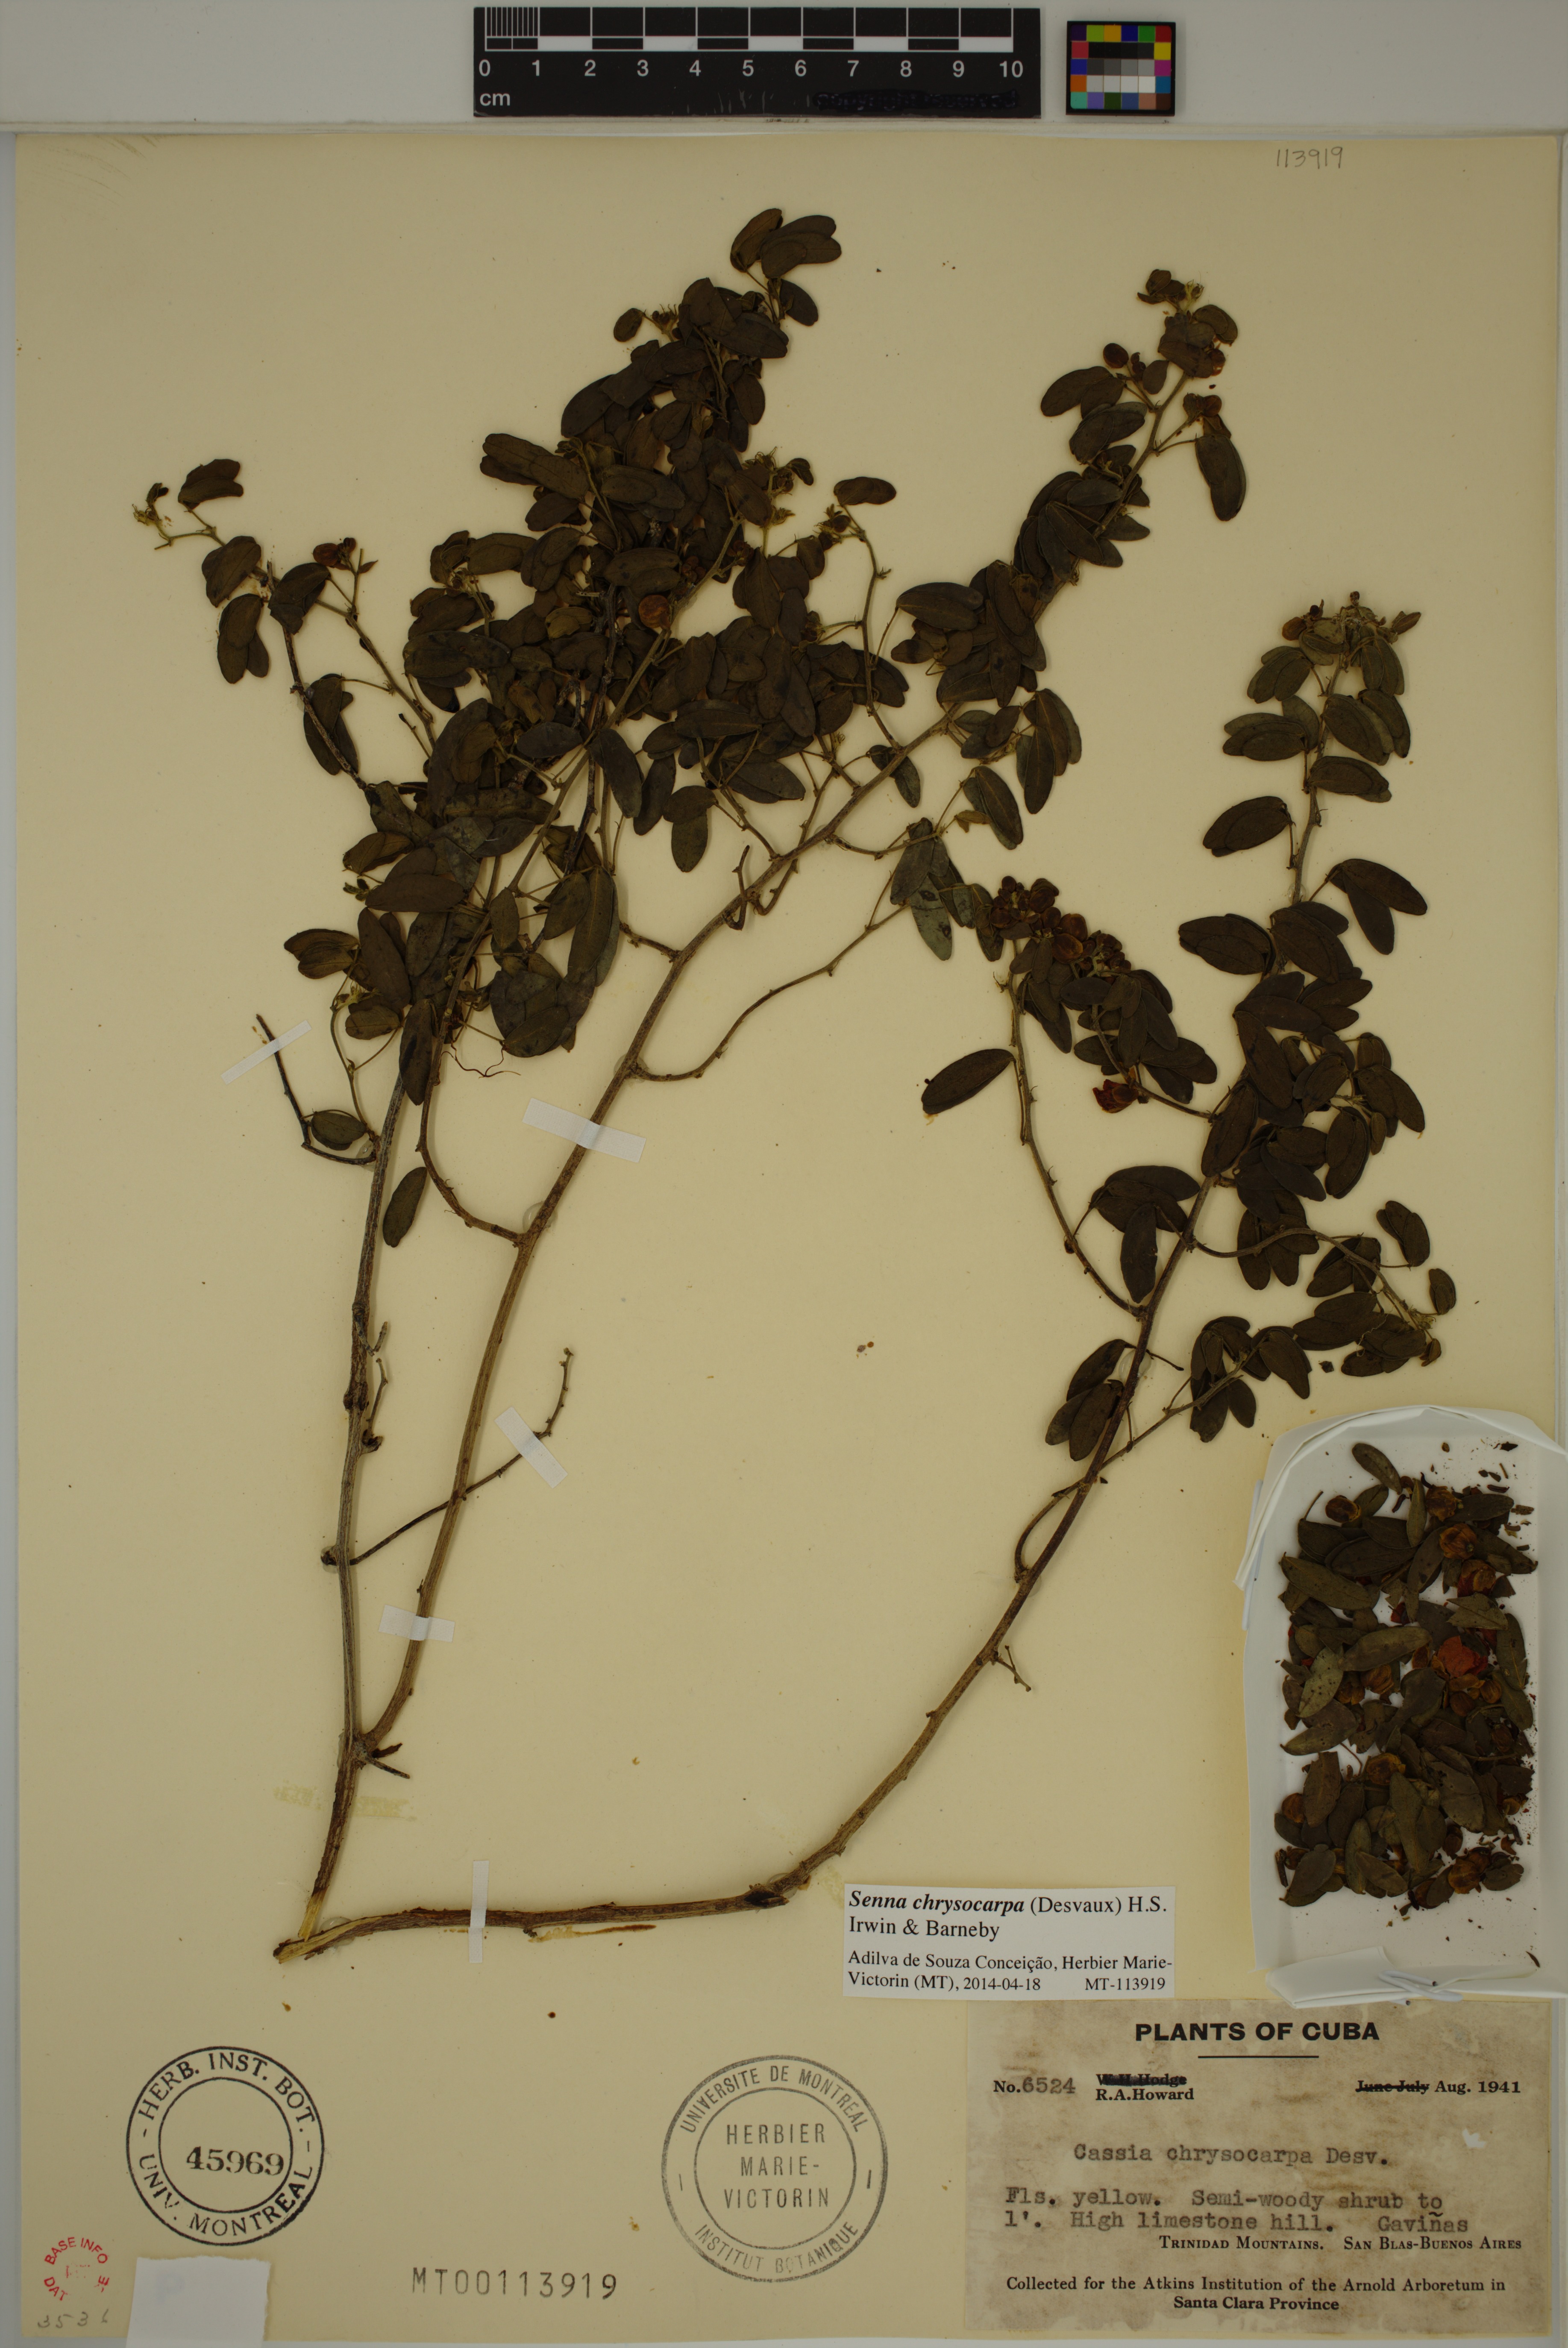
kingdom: Plantae
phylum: Tracheophyta
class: Magnoliopsida
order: Fabales
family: Fabaceae
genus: Senna
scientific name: Senna chrysocarpa
